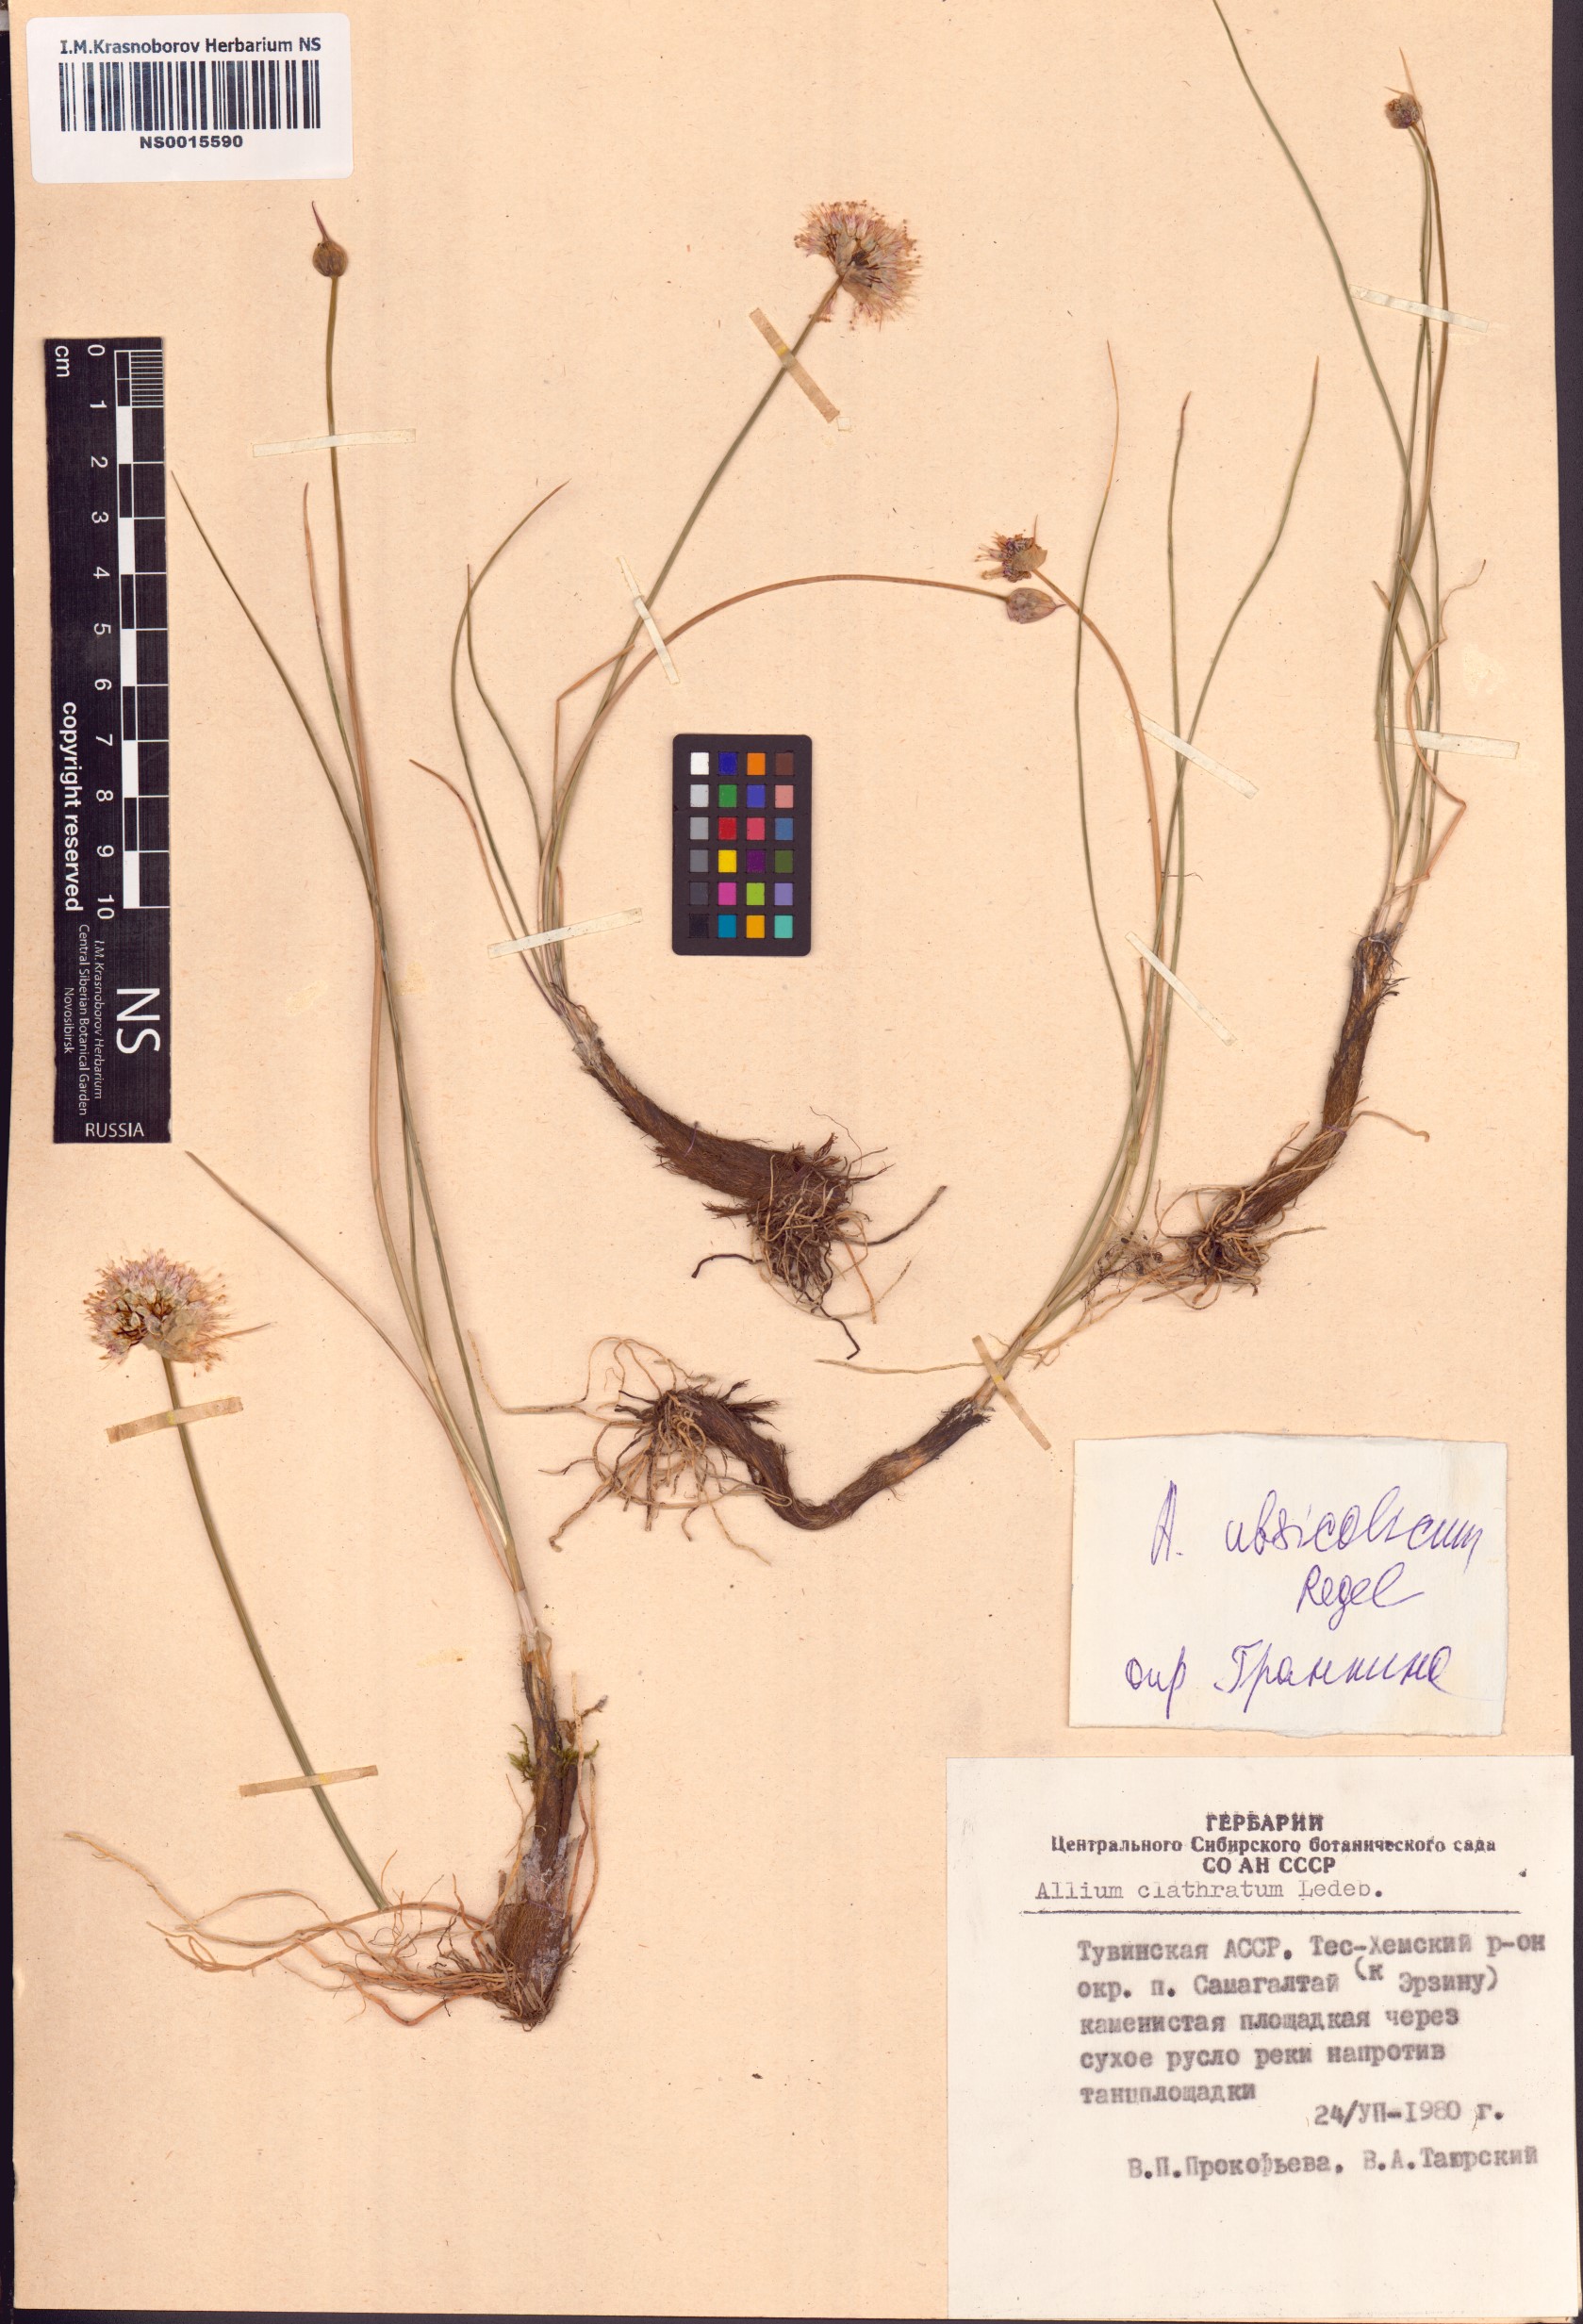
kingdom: Plantae
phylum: Tracheophyta
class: Liliopsida
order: Asparagales
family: Amaryllidaceae
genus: Allium
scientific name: Allium ubsicola
